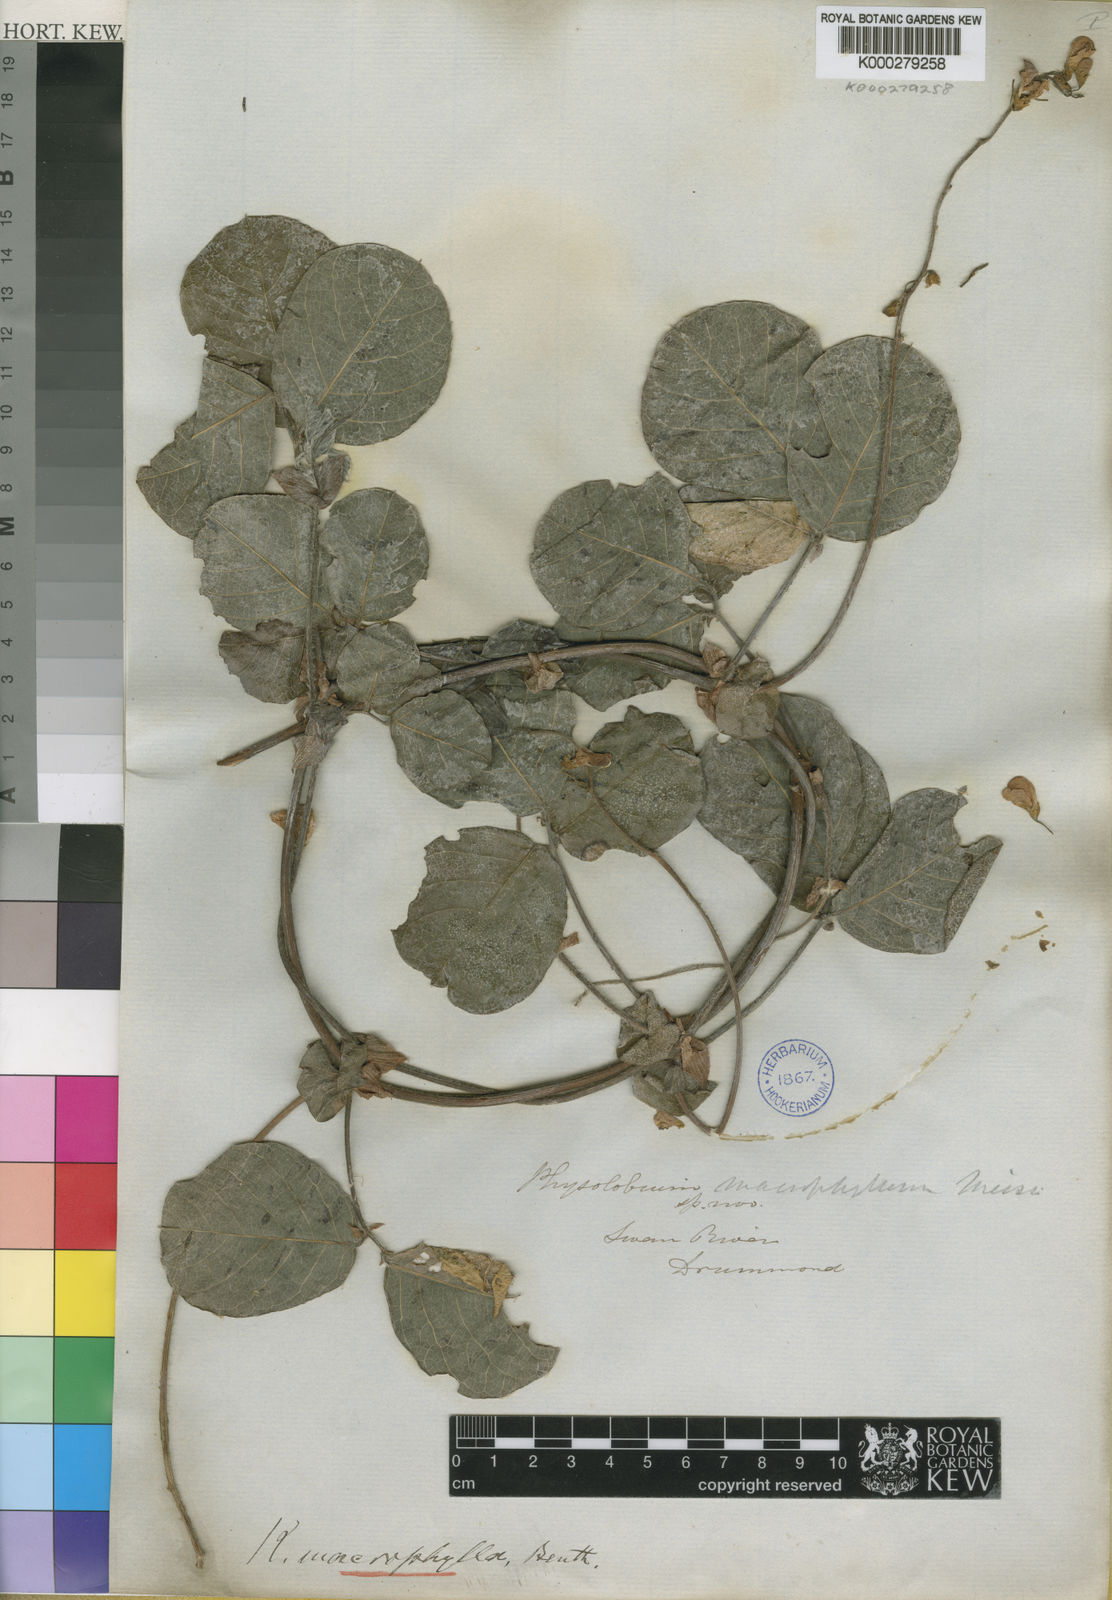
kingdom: Plantae
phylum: Tracheophyta
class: Magnoliopsida
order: Fabales
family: Fabaceae
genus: Kennedia
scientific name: Kennedia
